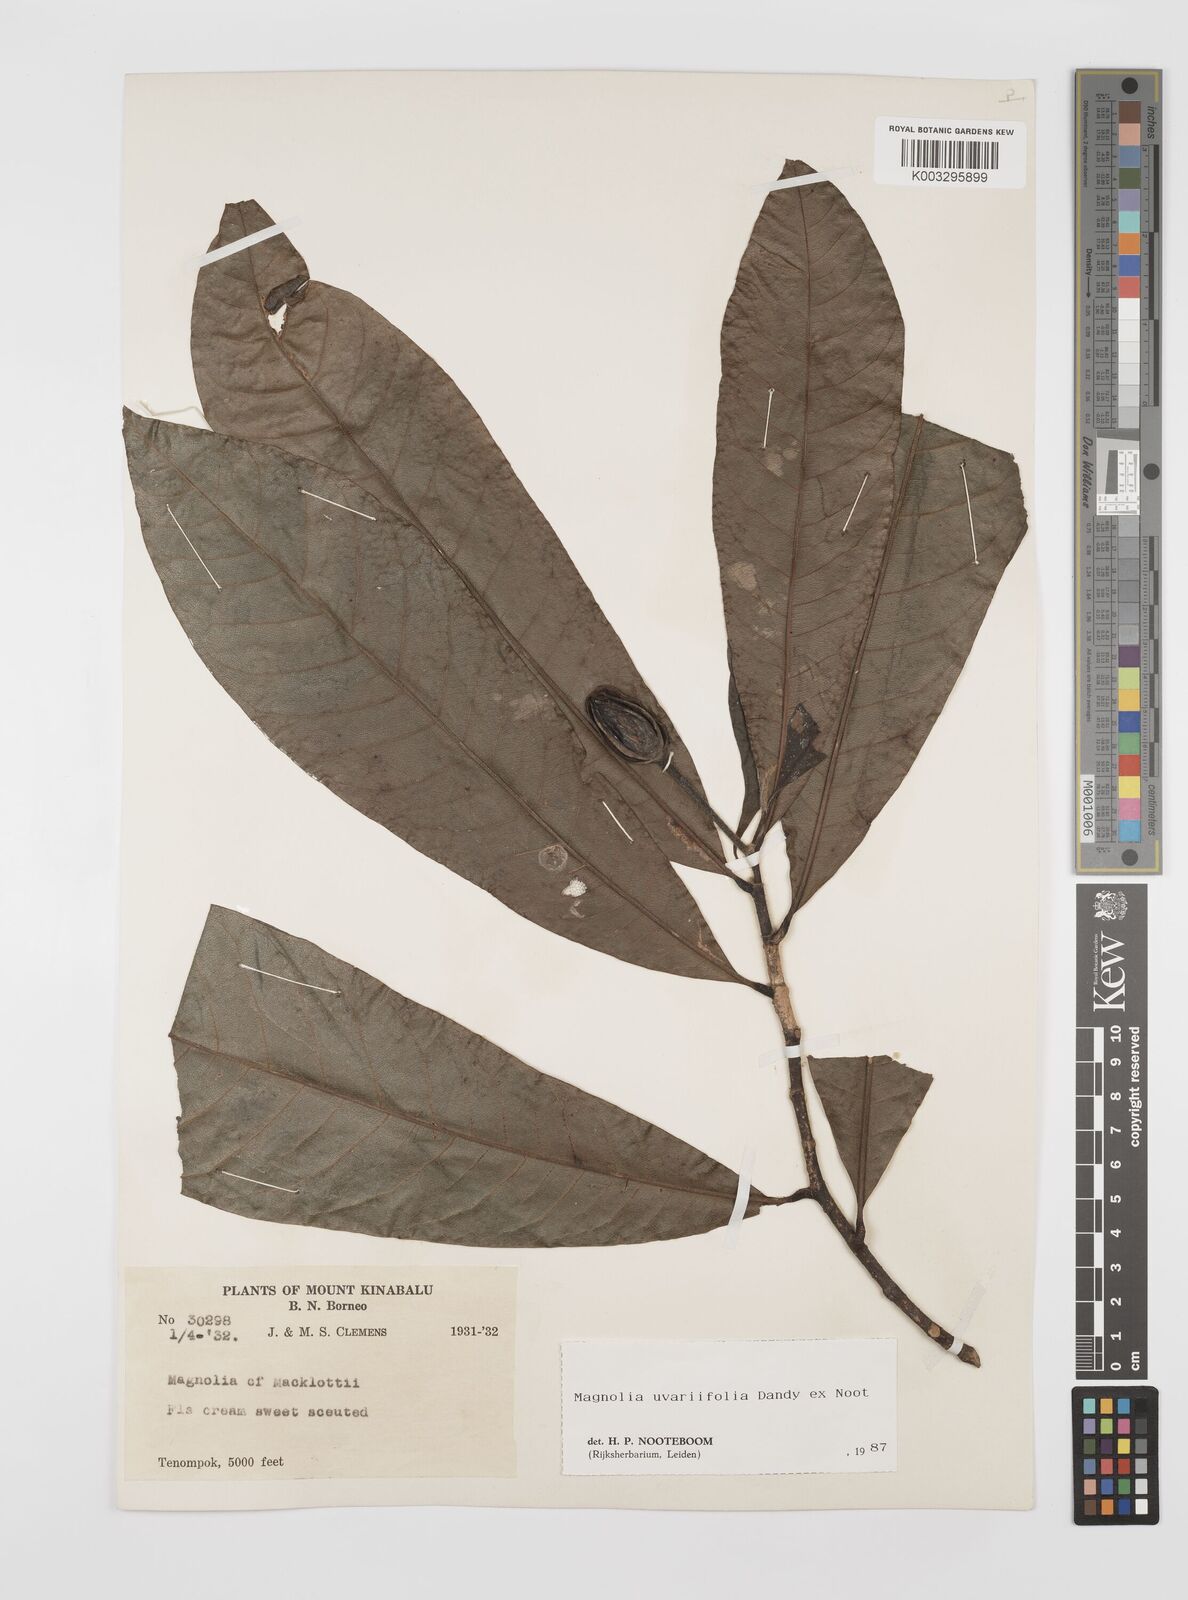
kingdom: Plantae
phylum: Tracheophyta
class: Magnoliopsida
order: Magnoliales
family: Magnoliaceae
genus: Magnolia
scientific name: Magnolia macklottii
